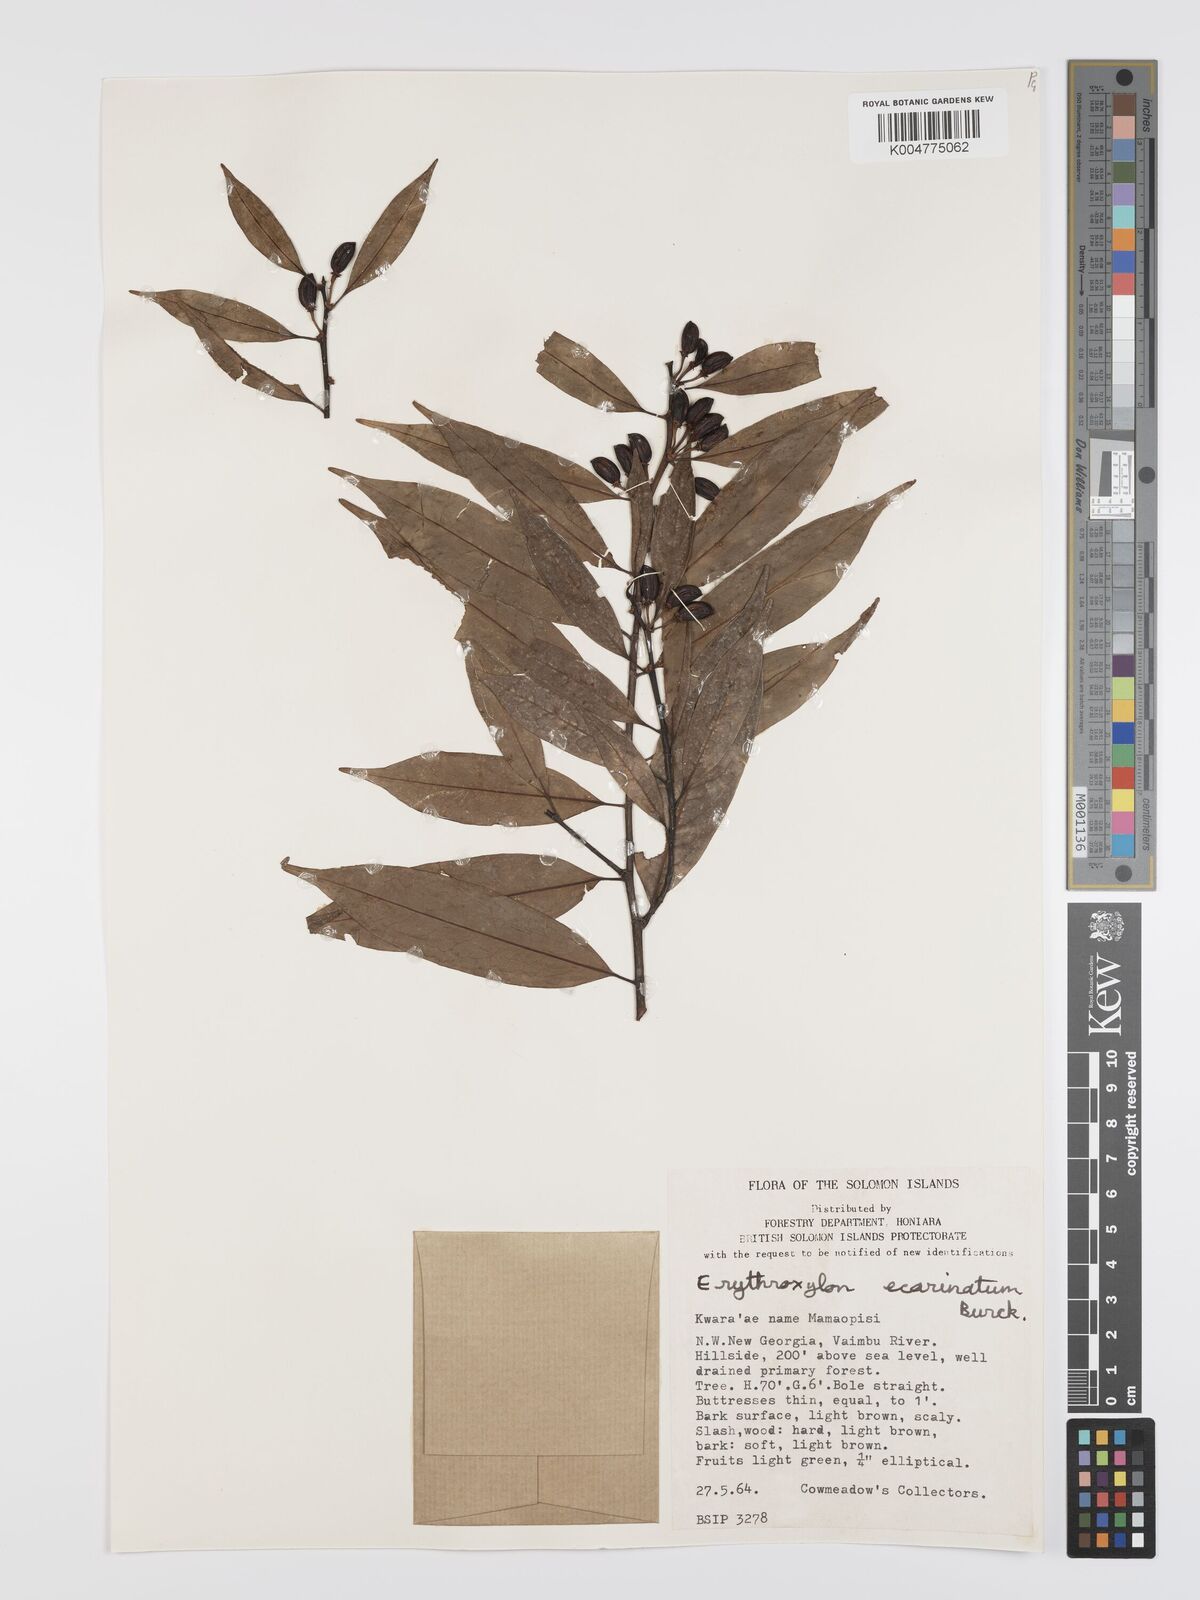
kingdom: Plantae
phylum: Tracheophyta
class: Magnoliopsida
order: Malpighiales
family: Erythroxylaceae
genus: Erythroxylum
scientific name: Erythroxylum ecarinatum
